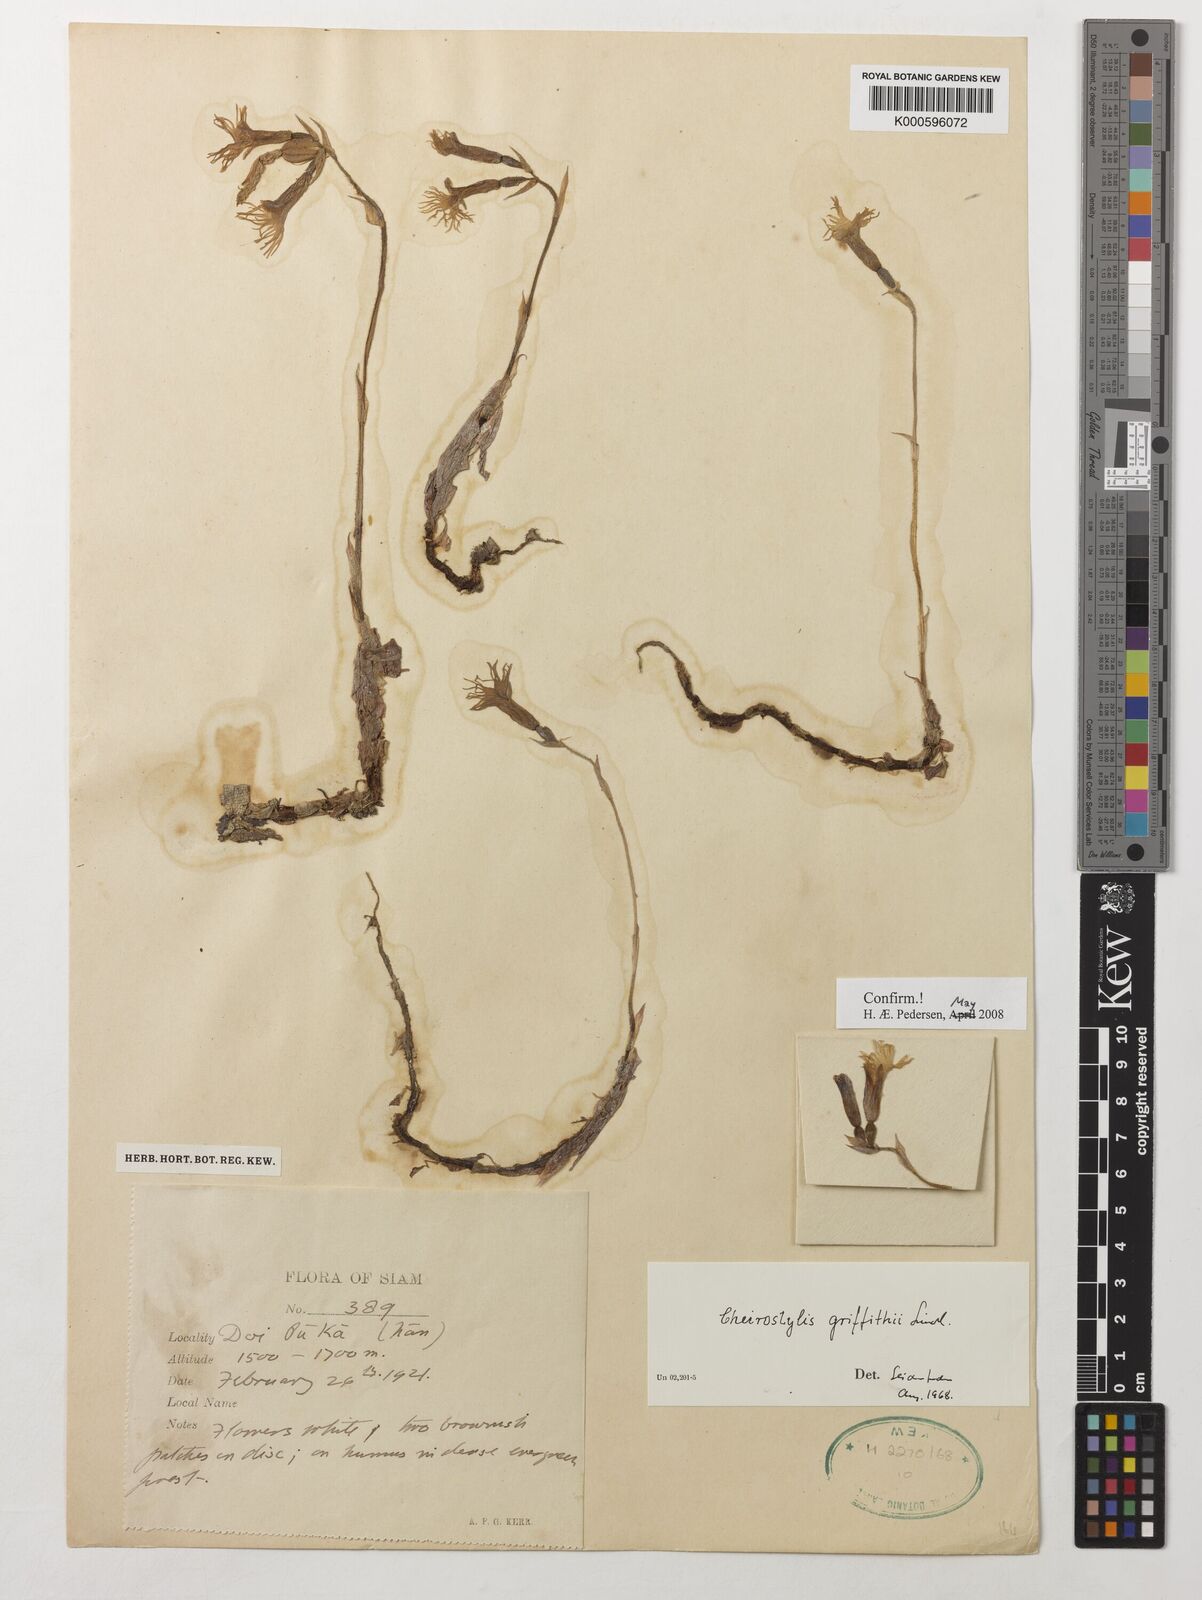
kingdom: Plantae
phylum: Tracheophyta
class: Liliopsida
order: Asparagales
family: Orchidaceae
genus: Cheirostylis
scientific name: Cheirostylis griffithii
